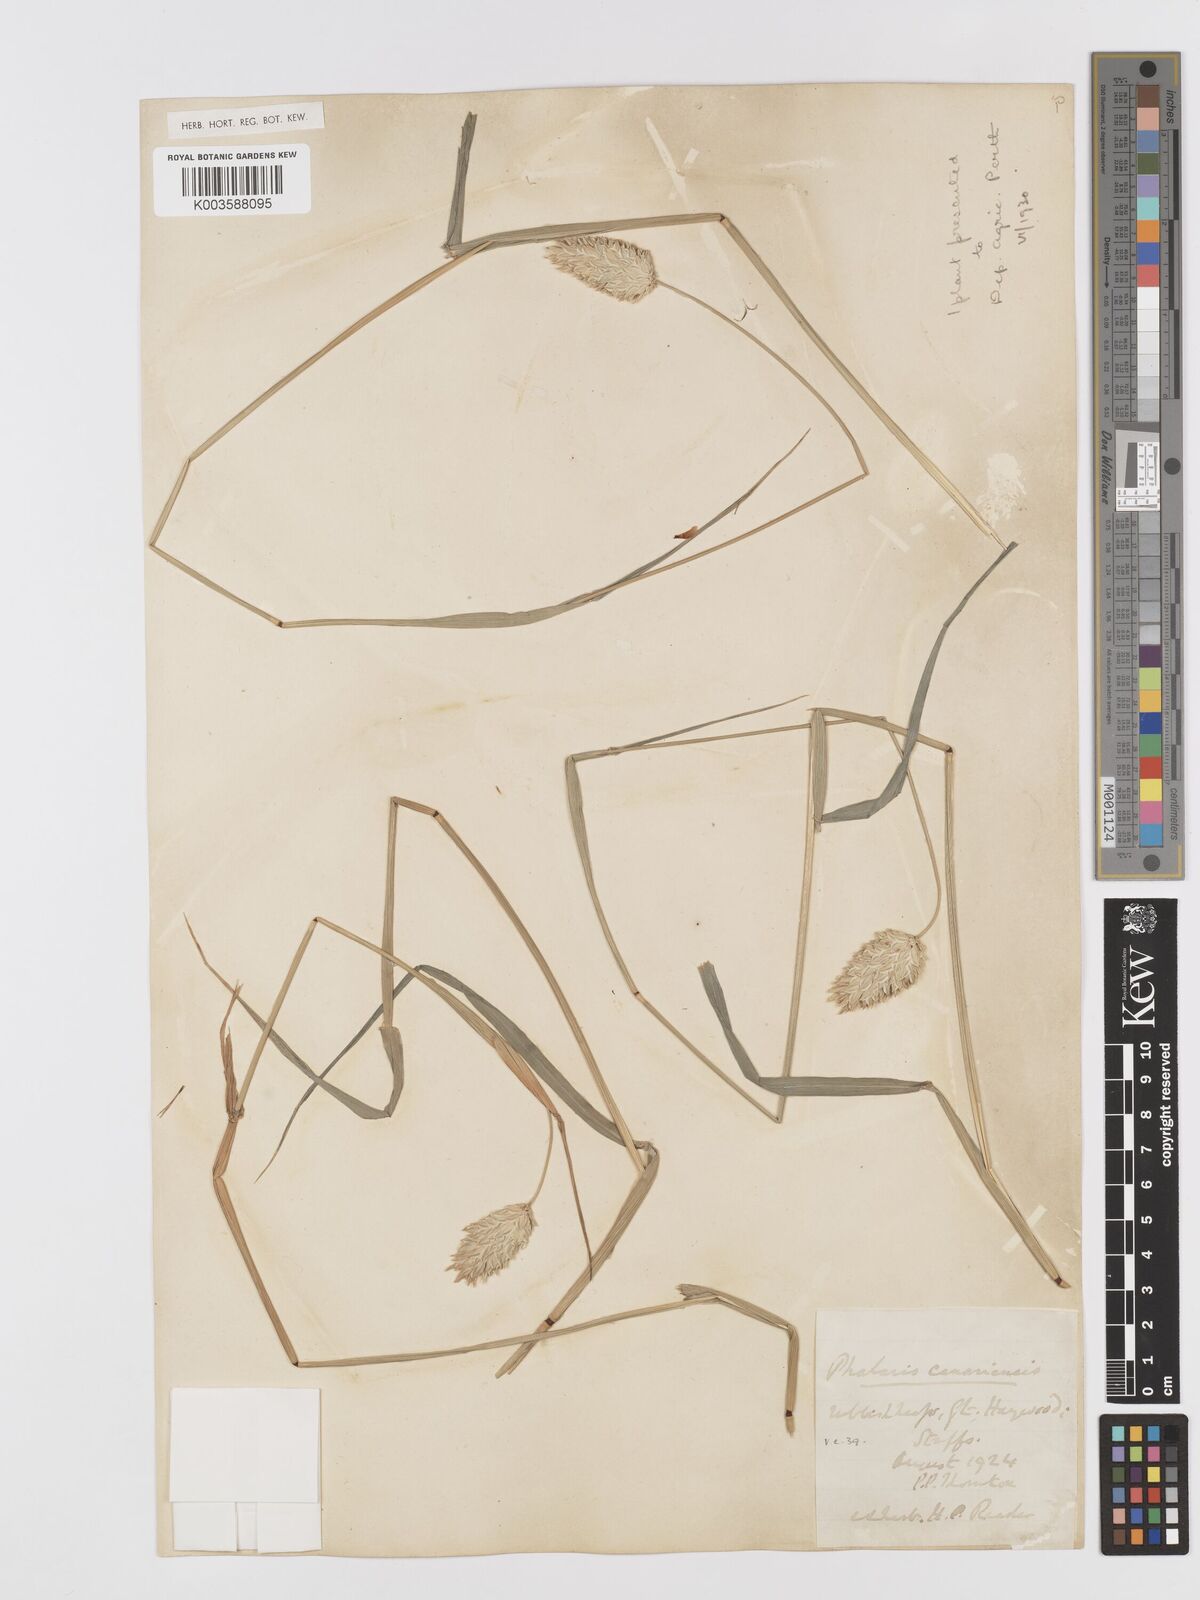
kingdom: Plantae
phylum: Tracheophyta
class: Liliopsida
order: Poales
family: Poaceae
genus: Phalaris
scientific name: Phalaris canariensis
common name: Annual canarygrass
